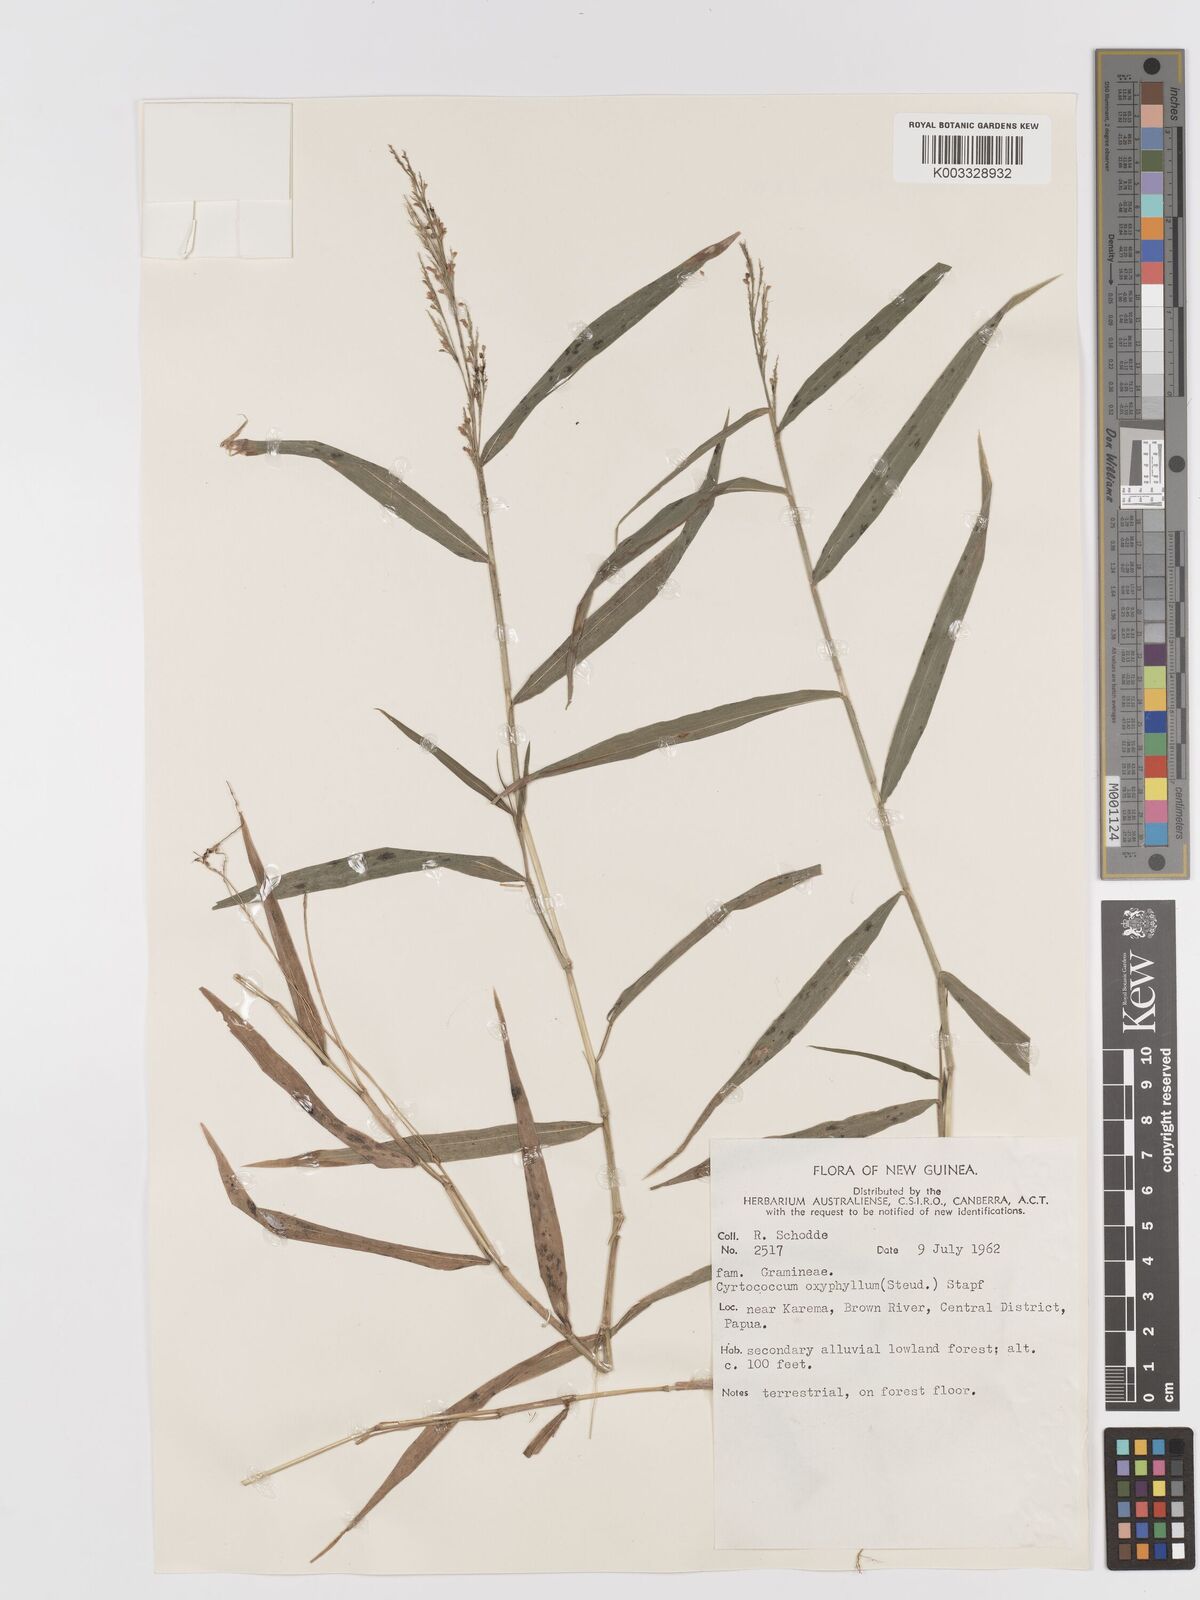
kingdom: Plantae
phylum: Tracheophyta
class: Liliopsida
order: Poales
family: Poaceae
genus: Cyrtococcum
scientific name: Cyrtococcum oxyphyllum
